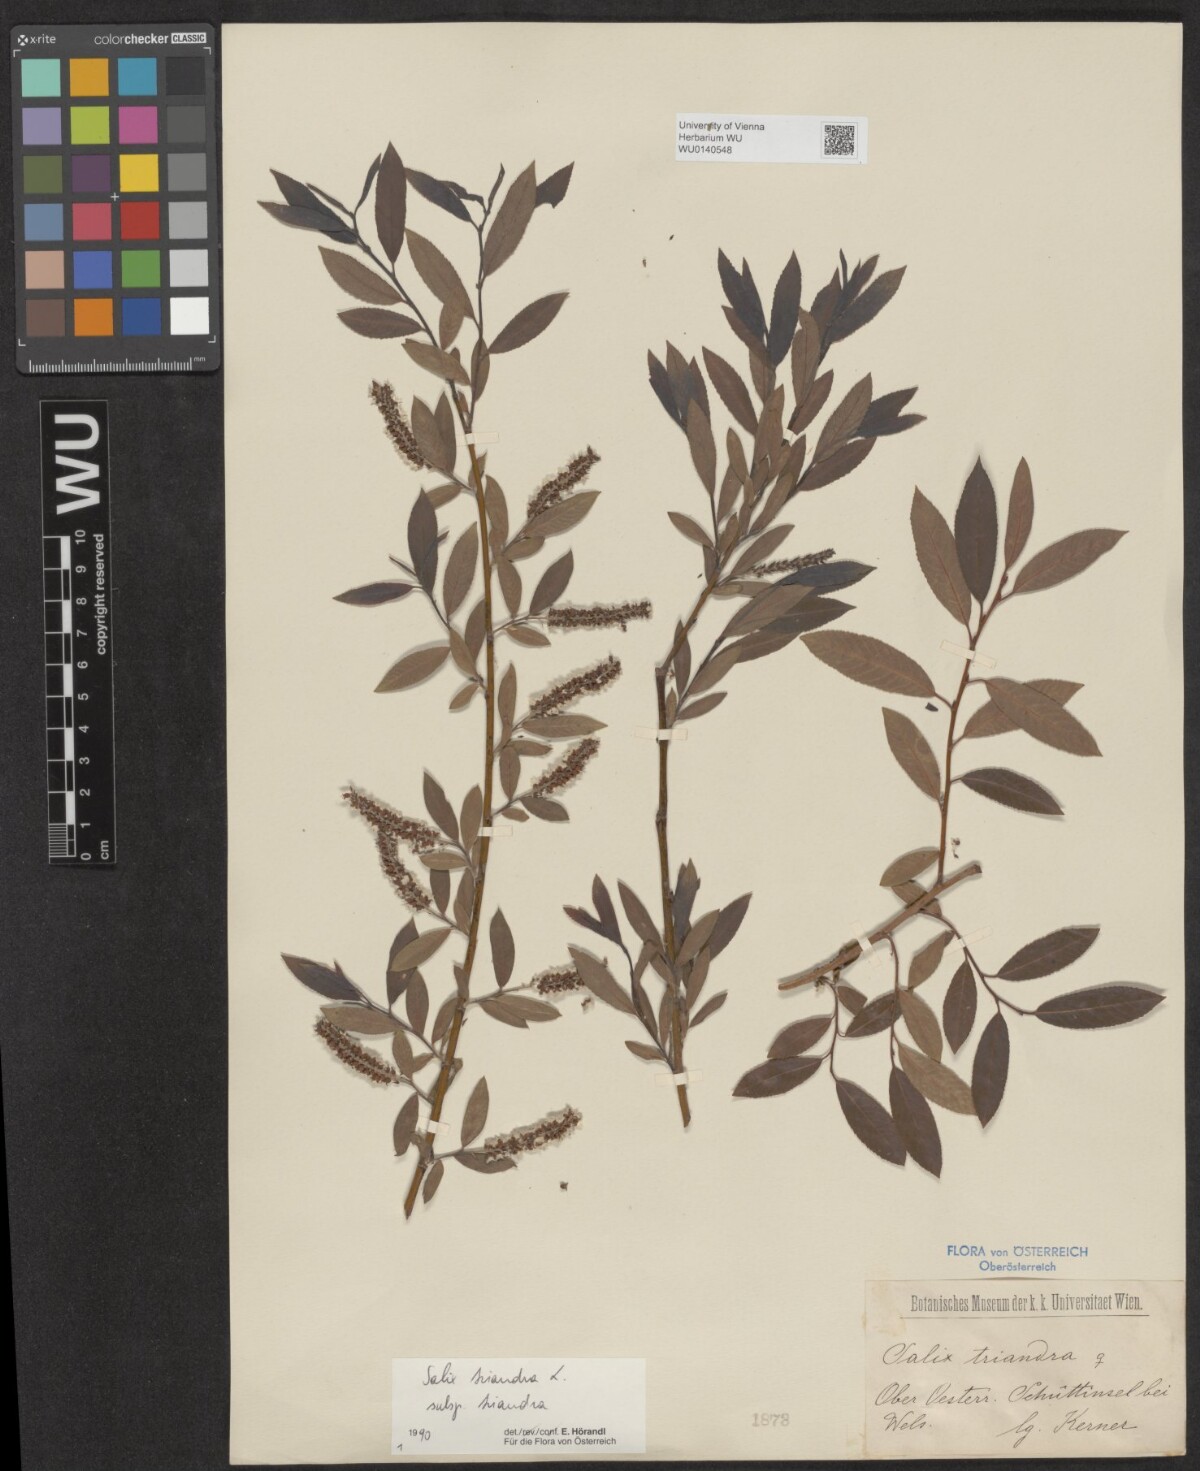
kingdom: Plantae
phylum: Tracheophyta
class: Magnoliopsida
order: Malpighiales
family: Salicaceae
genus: Salix
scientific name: Salix triandra
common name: Almond willow
